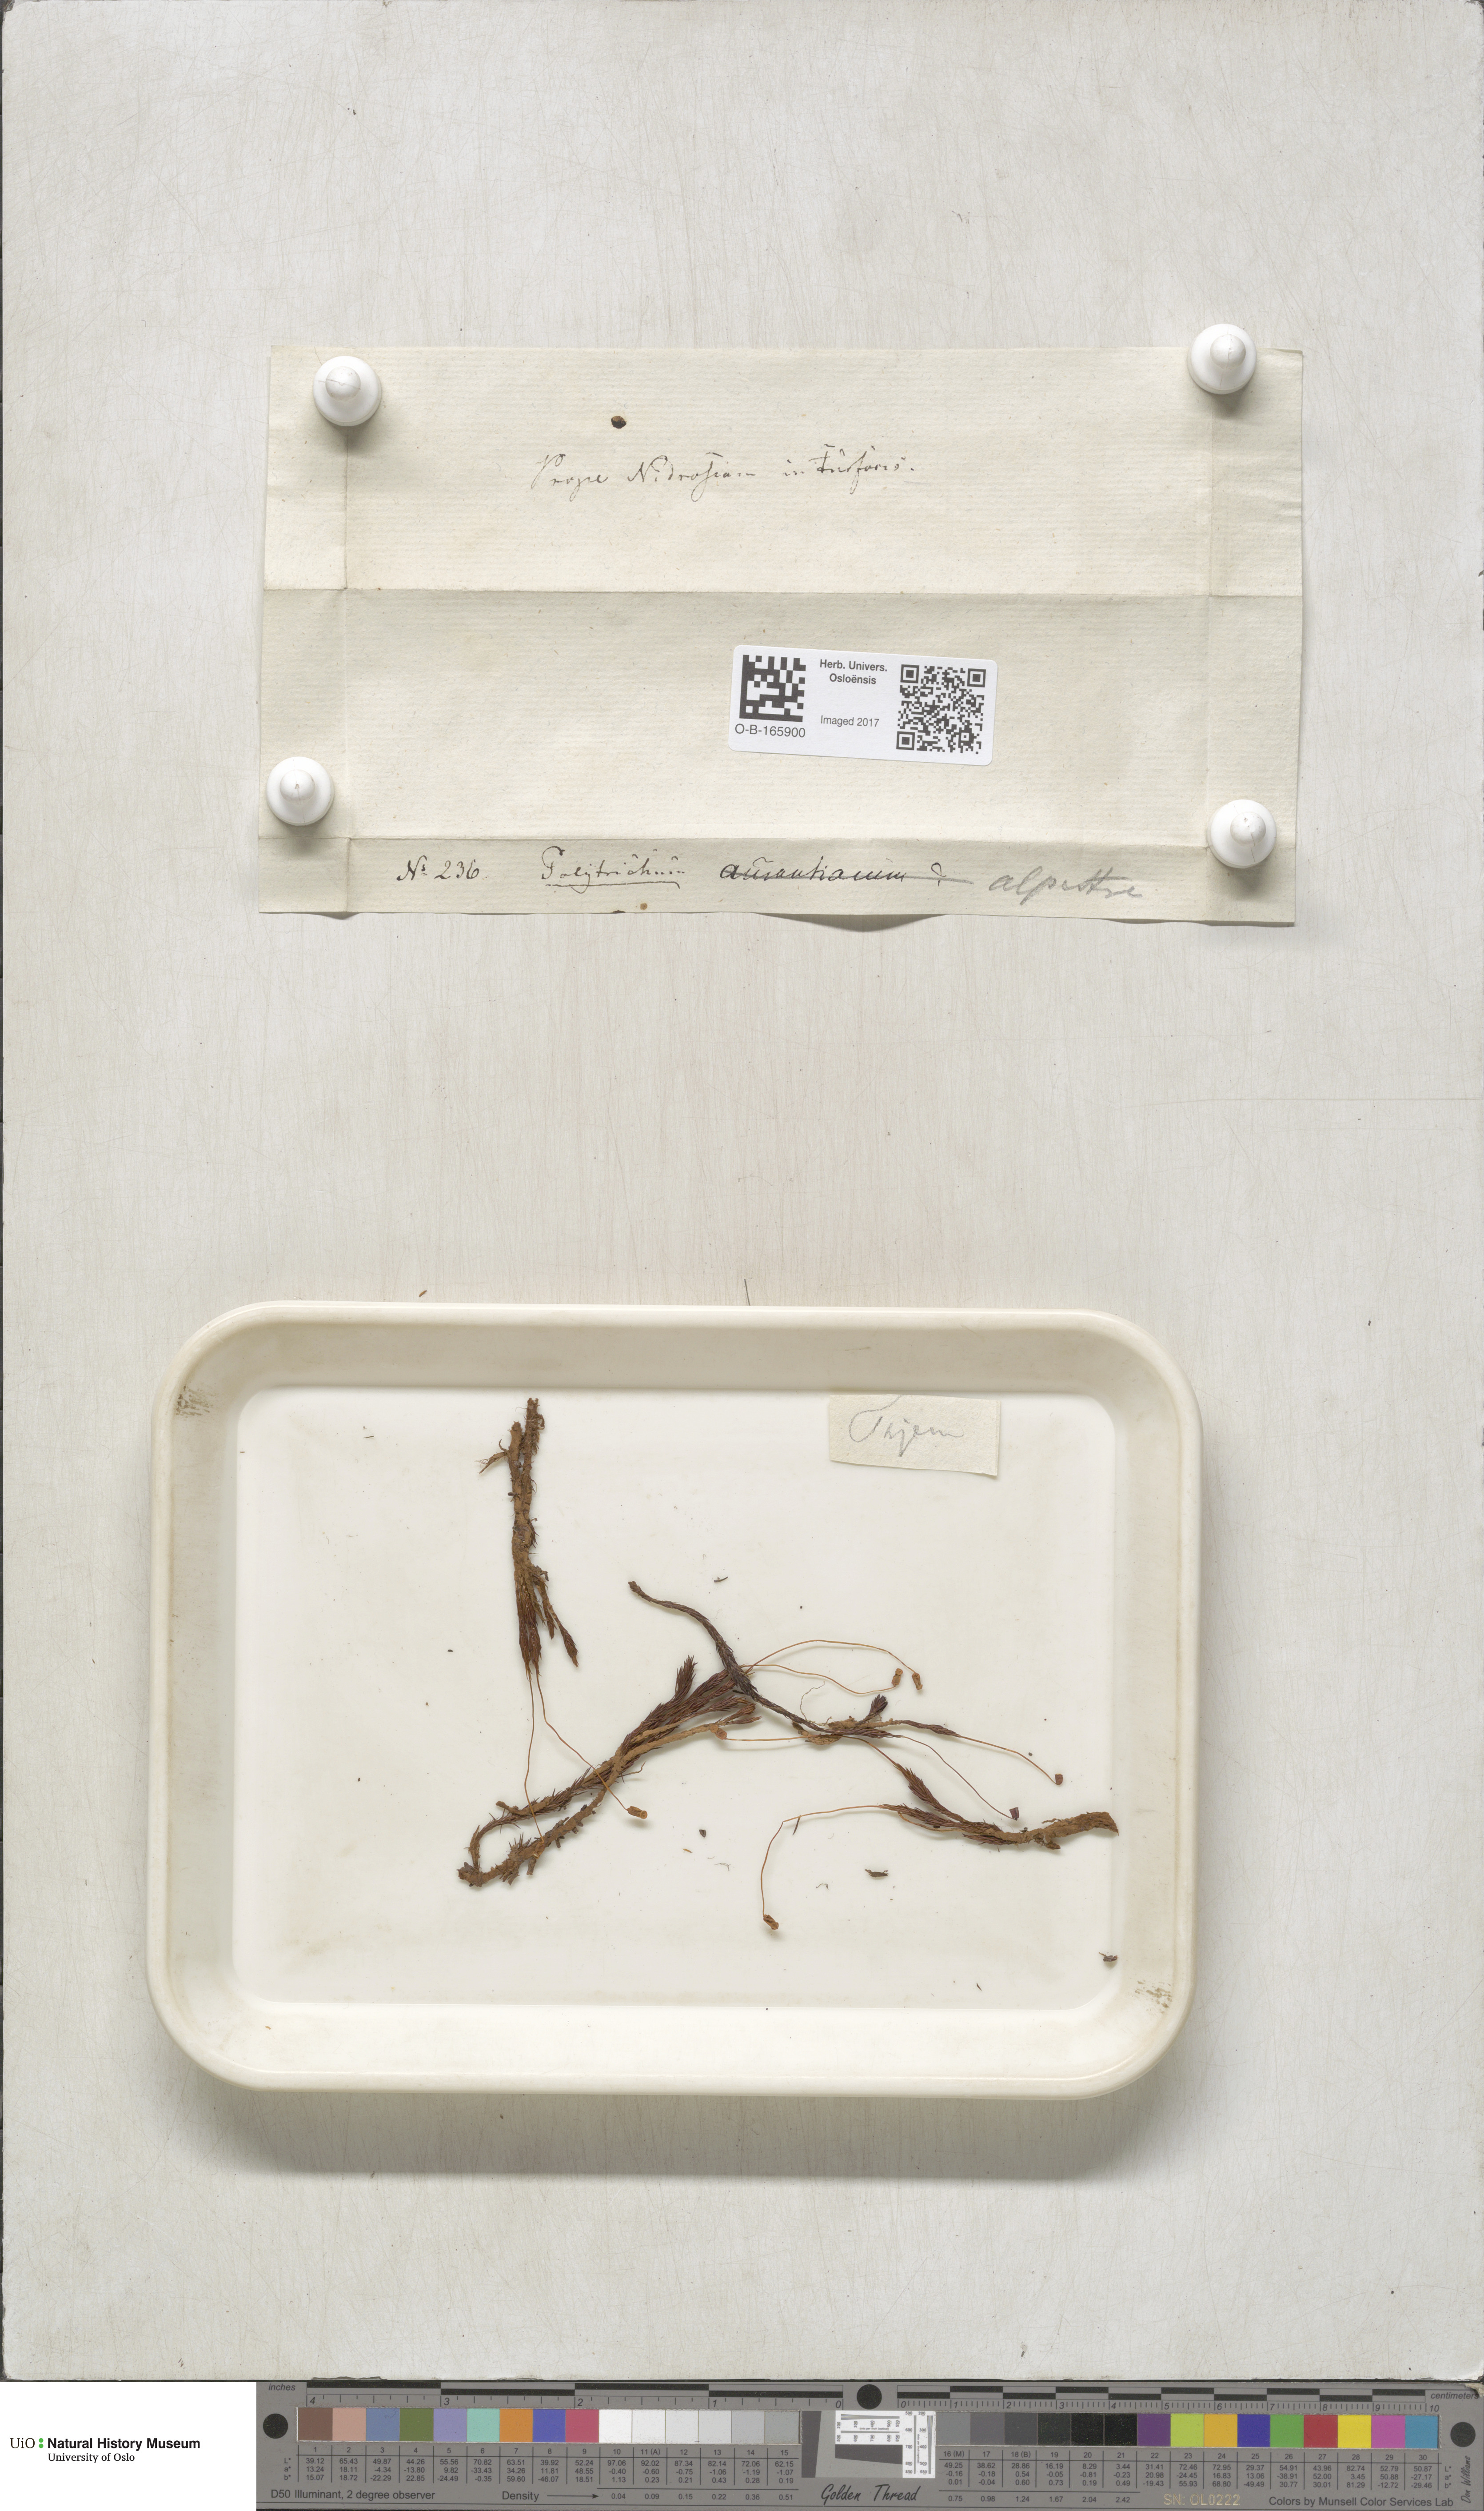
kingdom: Plantae
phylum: Bryophyta
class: Polytrichopsida
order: Polytrichales
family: Polytrichaceae
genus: Polytrichum
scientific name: Polytrichum strictum
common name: Bog haircap moss
